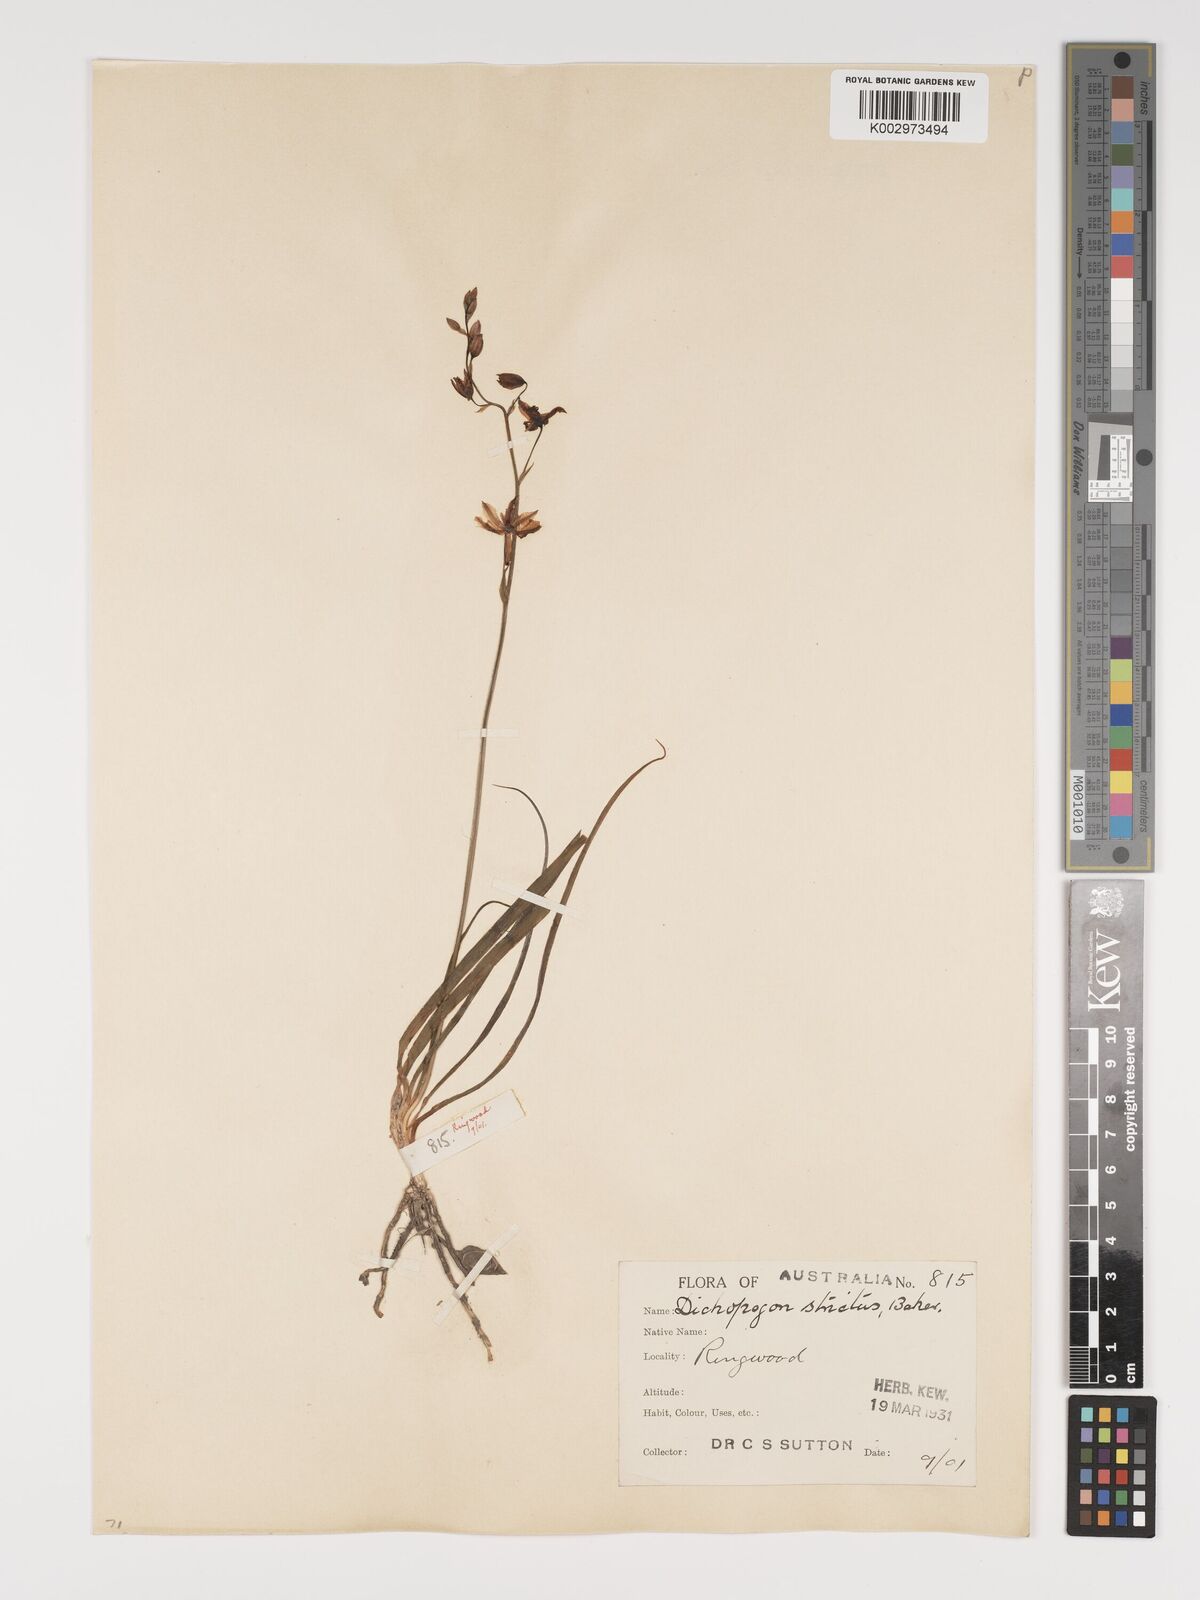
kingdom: Plantae
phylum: Tracheophyta
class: Liliopsida
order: Asparagales
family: Asparagaceae
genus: Arthropodium
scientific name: Arthropodium strictum
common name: Chocolate-lily
